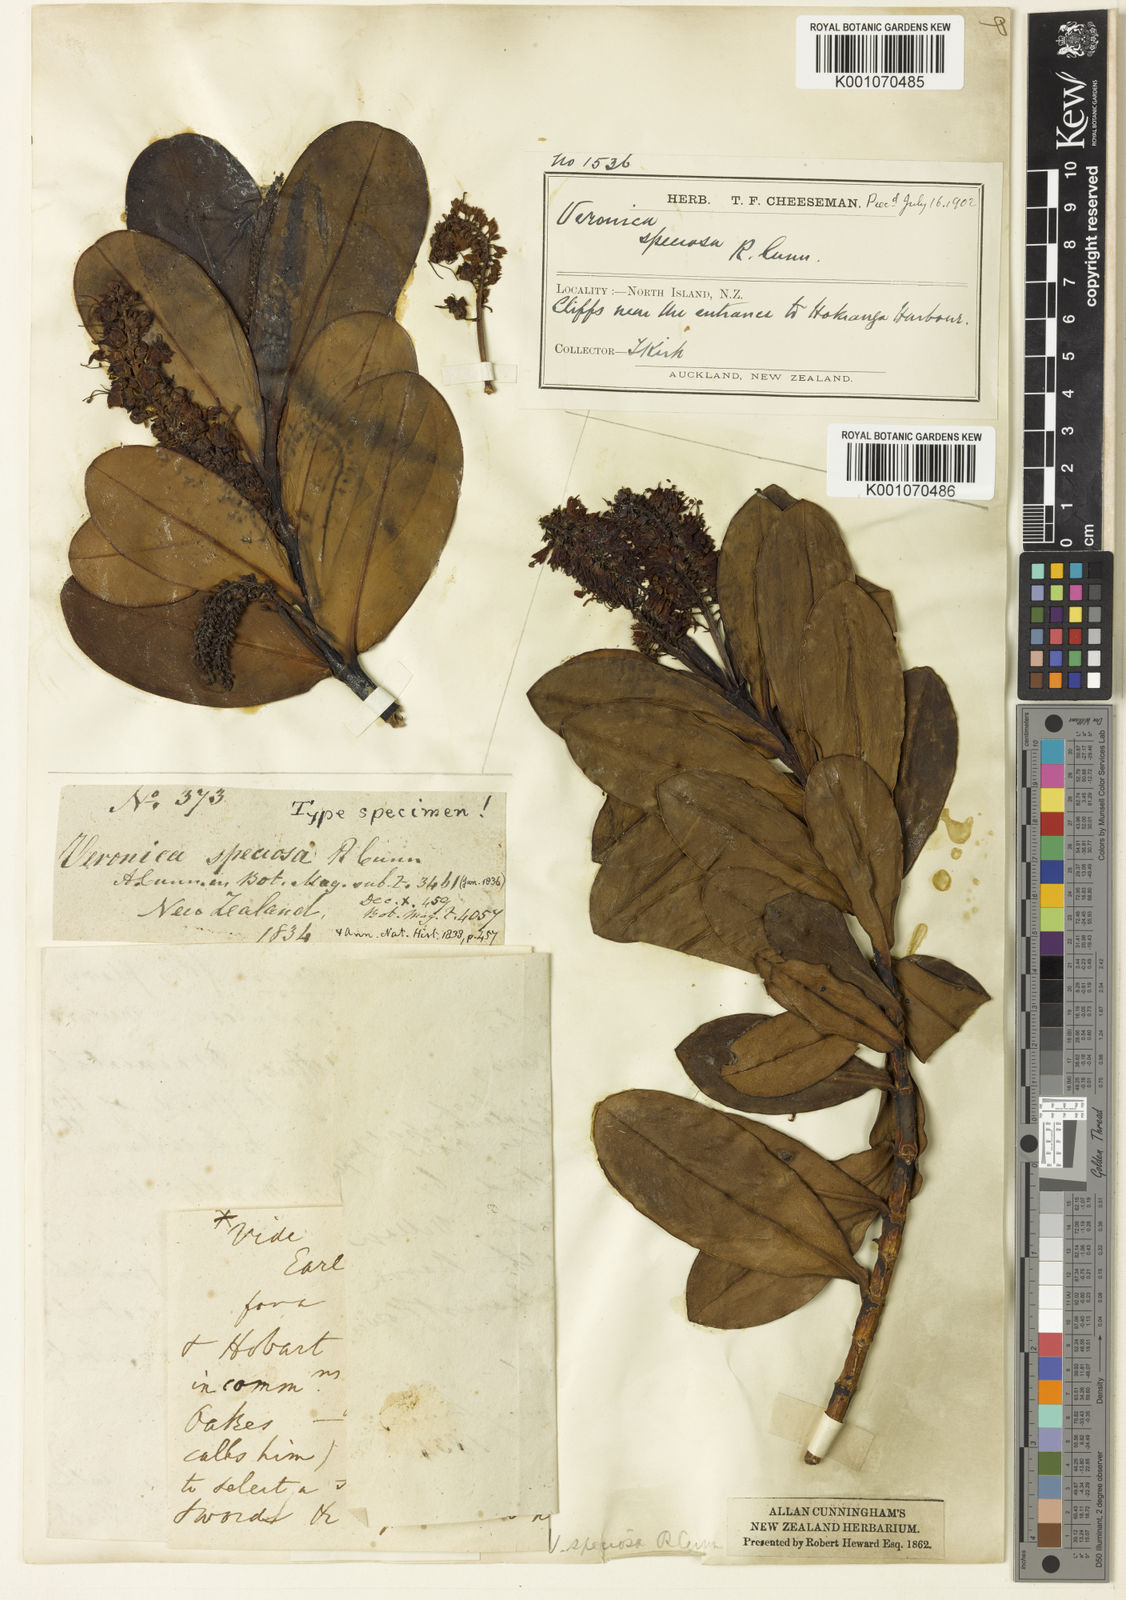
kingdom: Plantae
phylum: Tracheophyta
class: Magnoliopsida
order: Lamiales
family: Plantaginaceae
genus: Veronica
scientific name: Veronica speciosa
